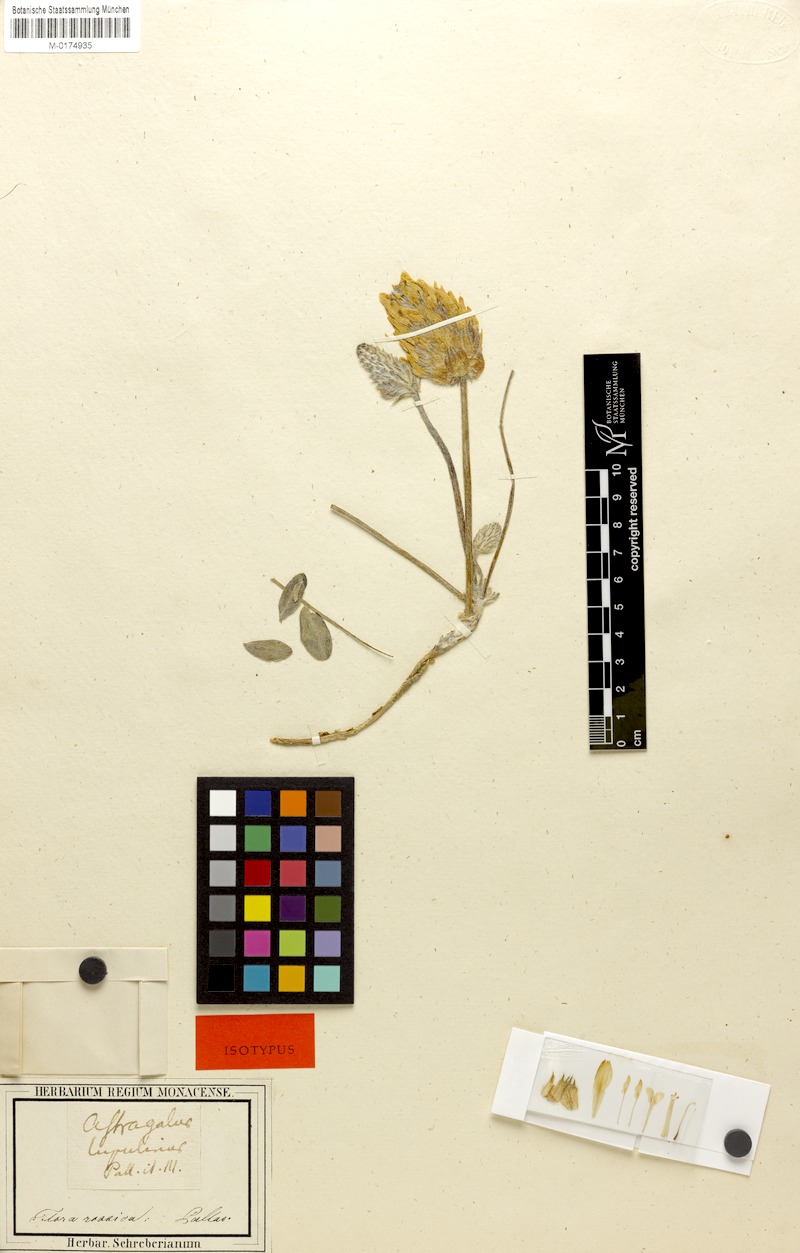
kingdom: Plantae
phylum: Tracheophyta
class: Magnoliopsida
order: Fabales
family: Fabaceae
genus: Astragalus
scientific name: Astragalus lupulinus
